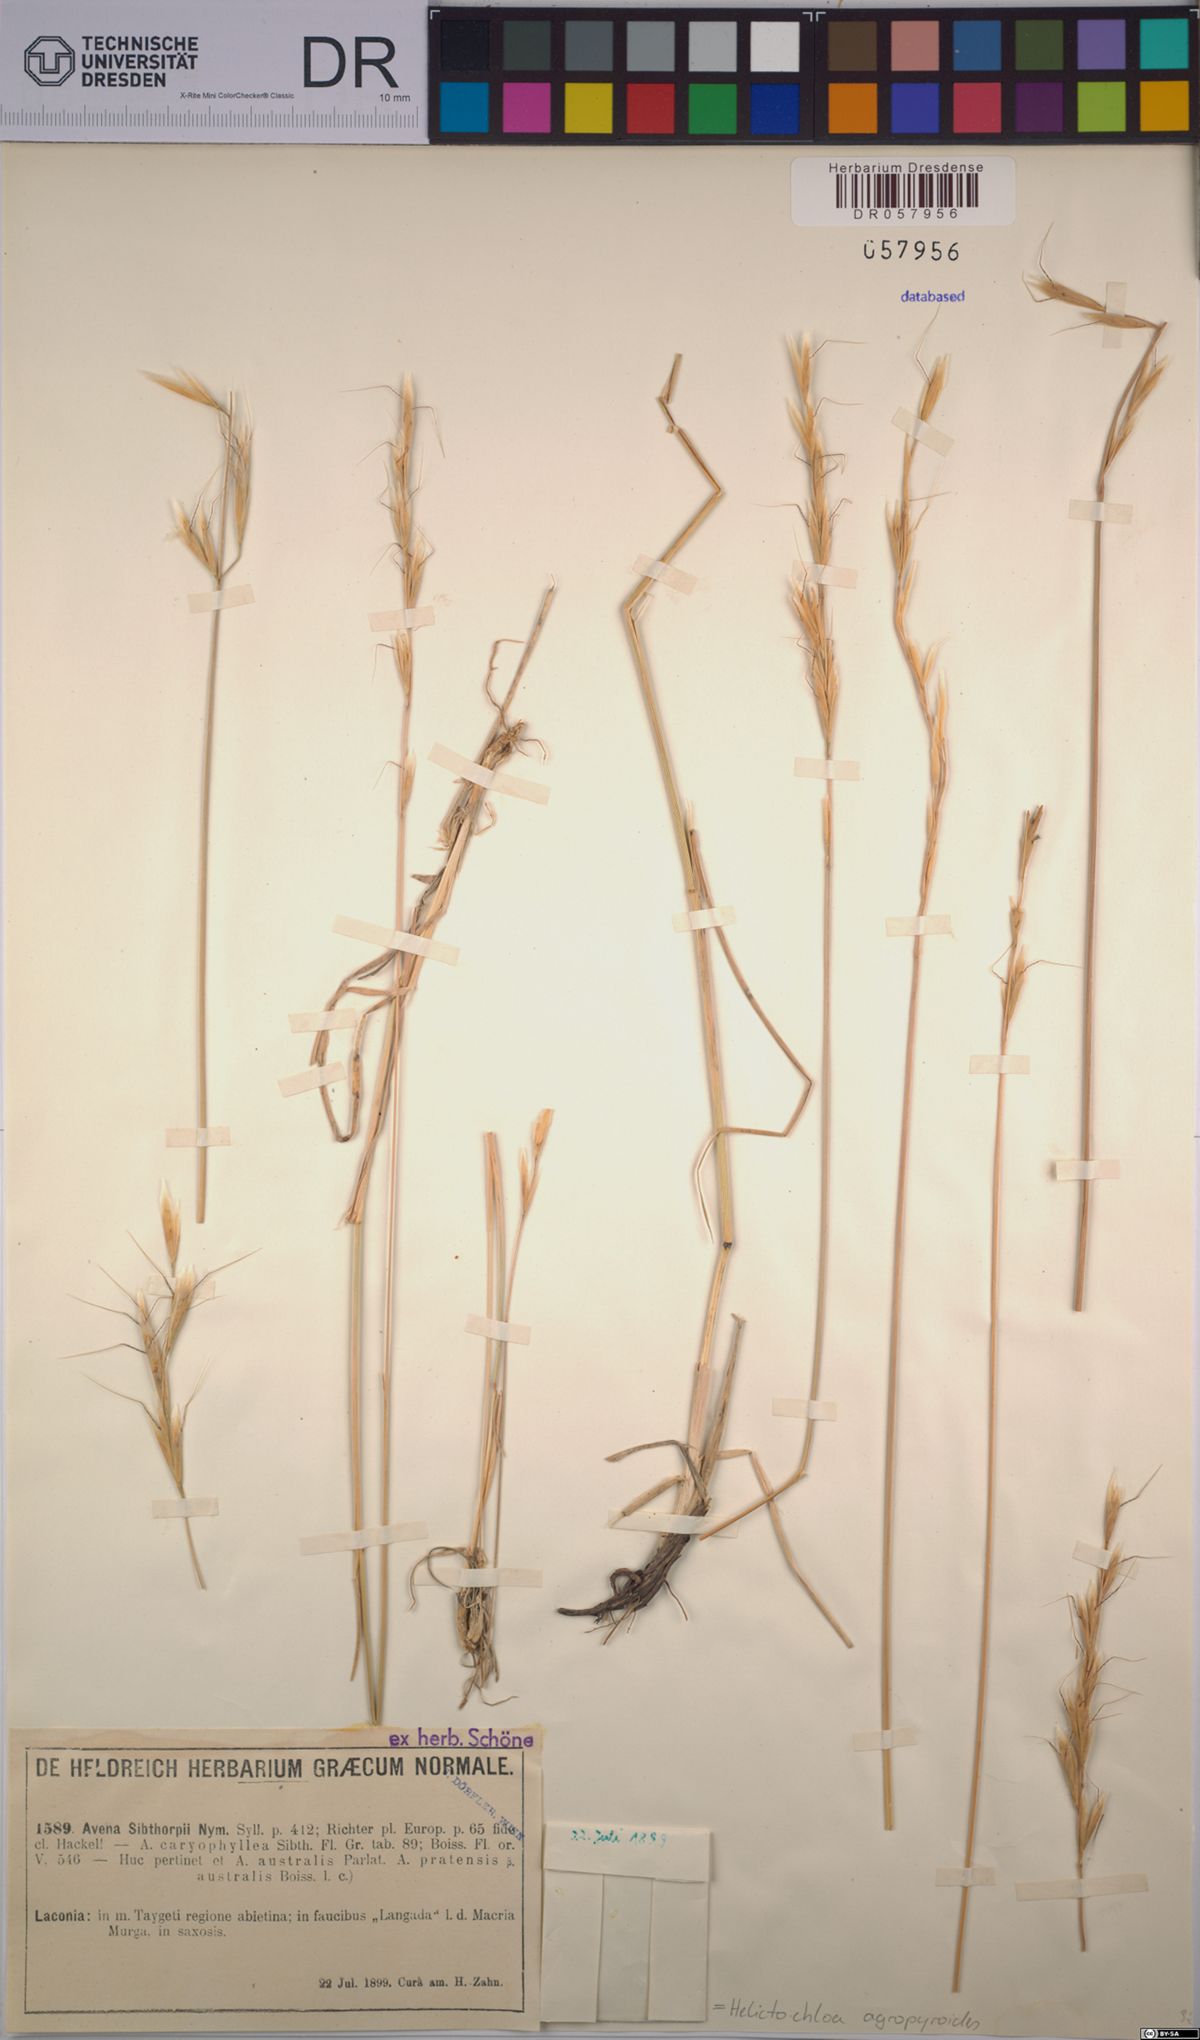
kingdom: Plantae
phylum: Tracheophyta
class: Liliopsida
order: Poales
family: Poaceae
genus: Helictochloa
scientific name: Helictochloa agropyroides
